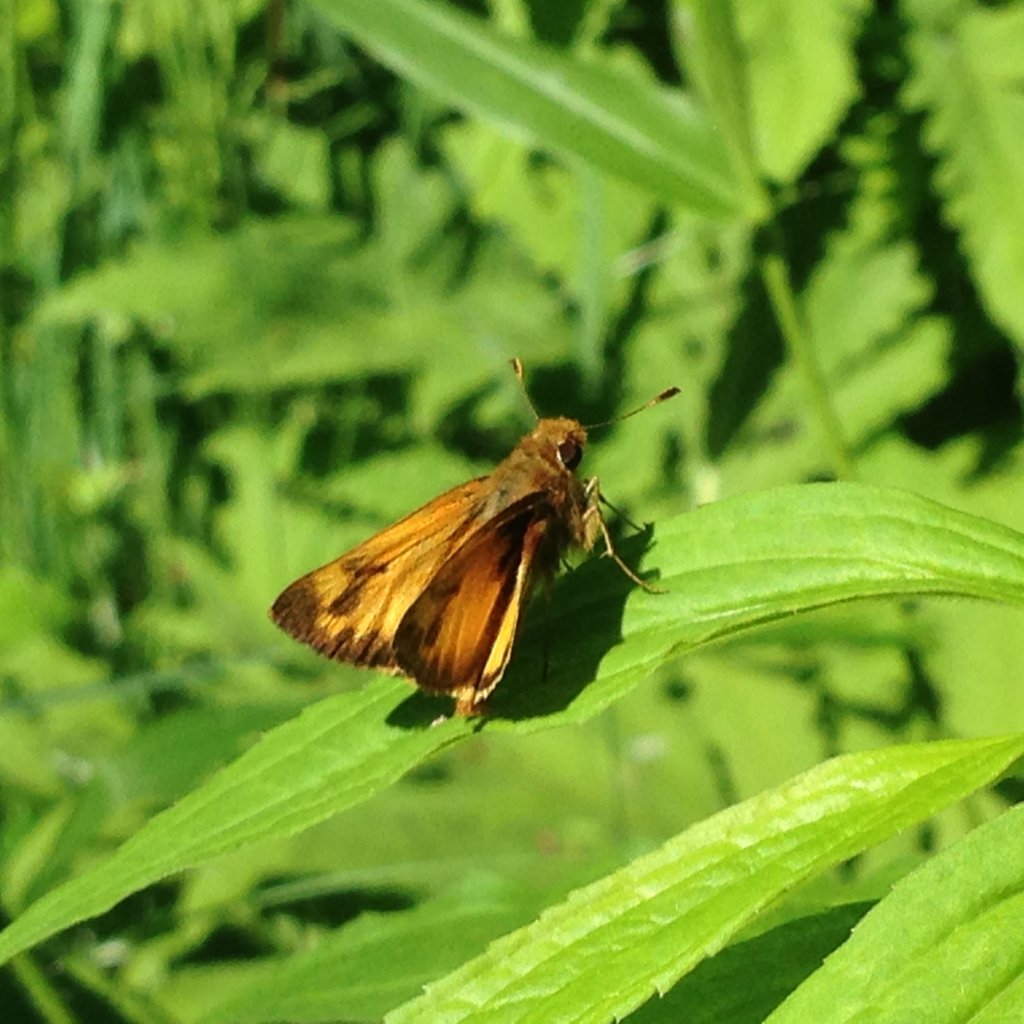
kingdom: Animalia
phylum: Arthropoda
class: Insecta
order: Lepidoptera
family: Hesperiidae
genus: Lon
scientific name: Lon zabulon
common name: Zabulon Skipper
